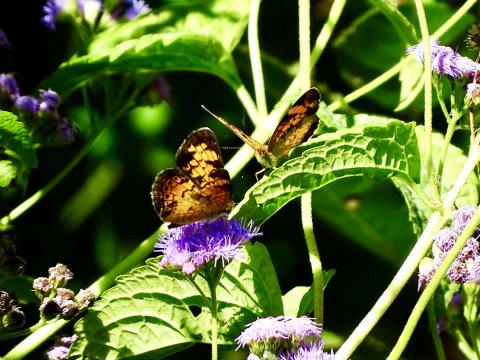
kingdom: Animalia
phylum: Arthropoda
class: Insecta
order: Lepidoptera
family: Nymphalidae
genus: Phyciodes
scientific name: Phyciodes tharos
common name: Pearl Crescent
